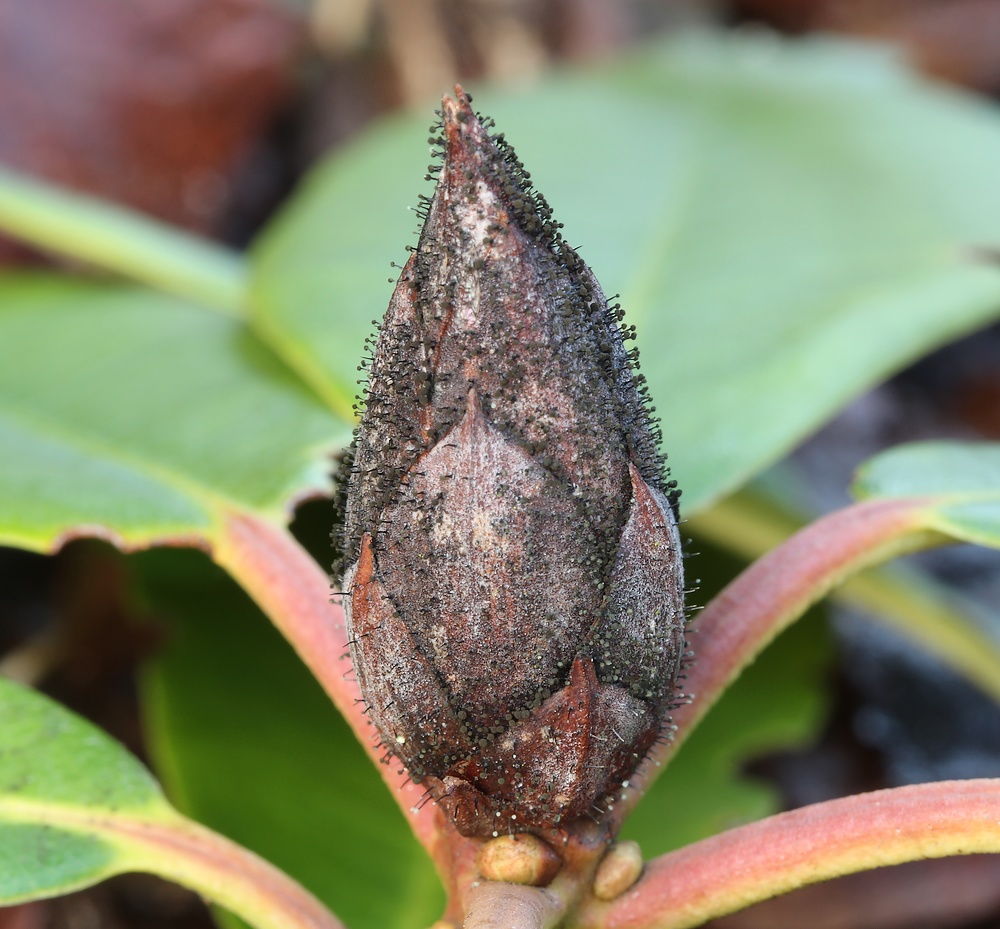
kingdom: Fungi
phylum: Ascomycota
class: Dothideomycetes
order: Pleosporales
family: Melanommataceae
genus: Seifertia
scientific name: Seifertia azaleae
